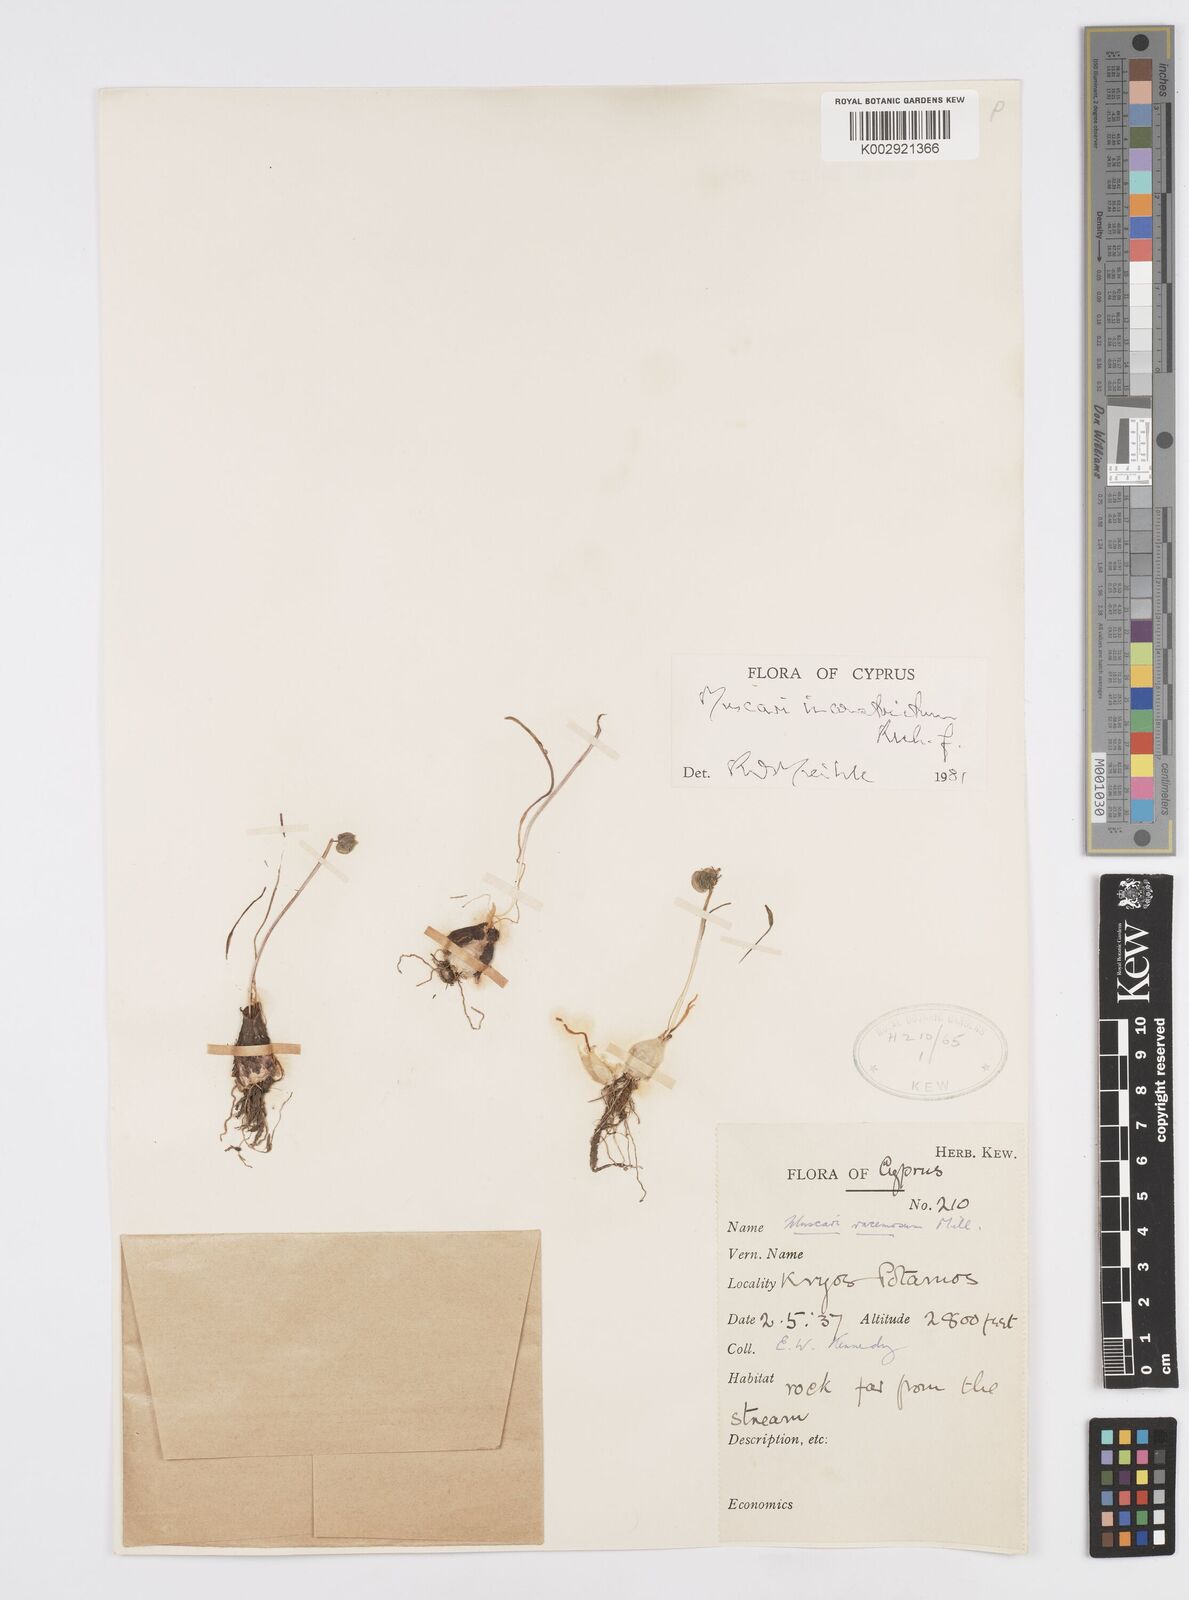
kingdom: Plantae
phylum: Tracheophyta
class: Liliopsida
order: Asparagales
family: Asparagaceae
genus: Muscari
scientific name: Muscari
